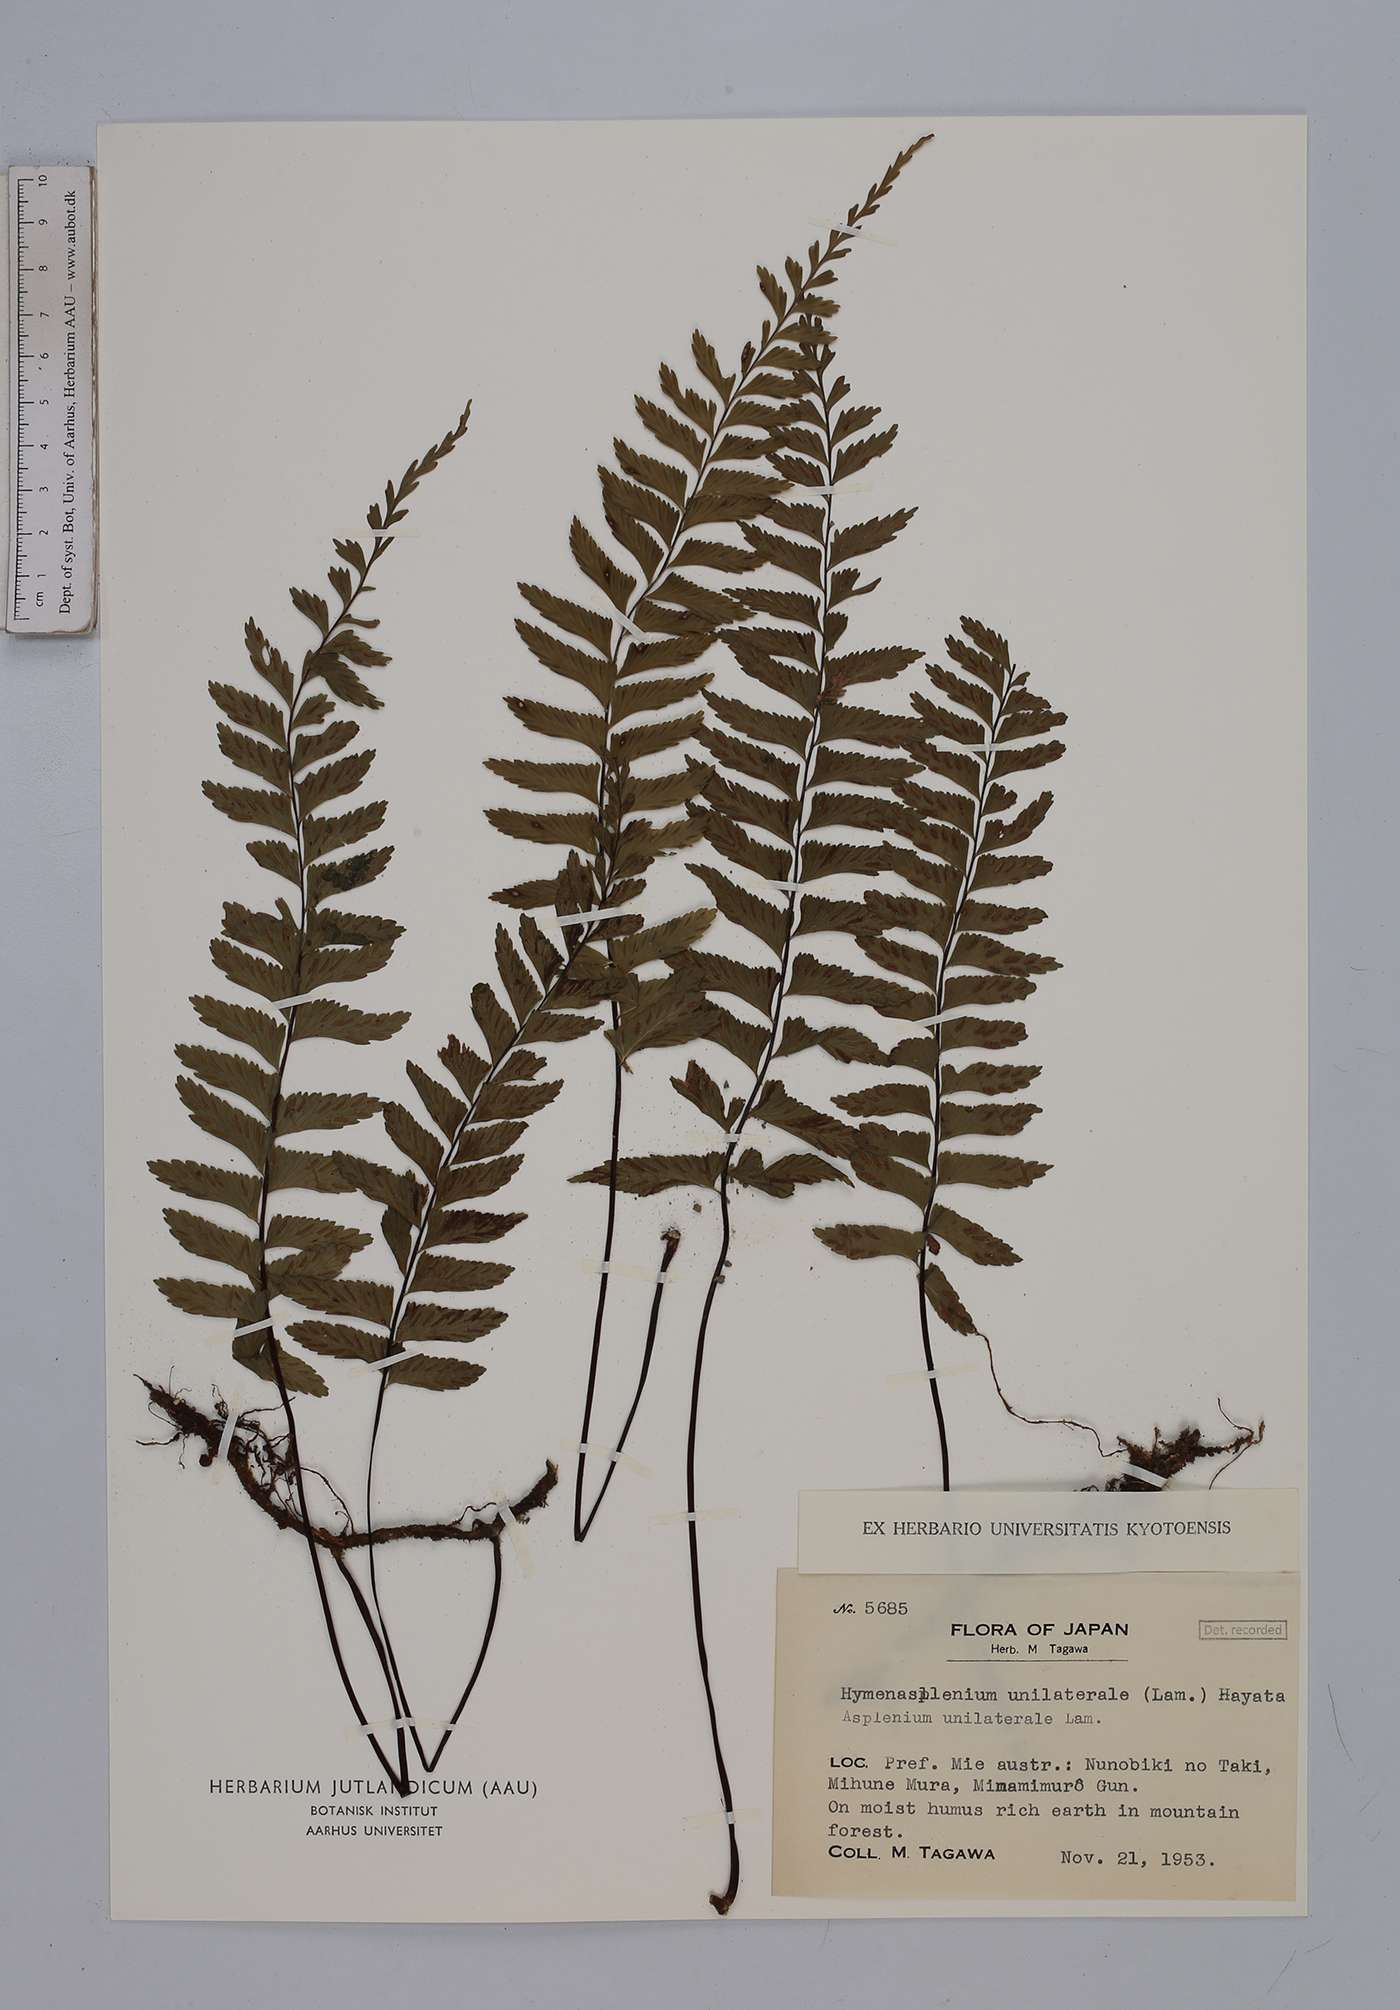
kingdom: Plantae
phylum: Tracheophyta
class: Polypodiopsida
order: Polypodiales
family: Aspleniaceae
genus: Hymenasplenium
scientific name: Hymenasplenium unilaterale
